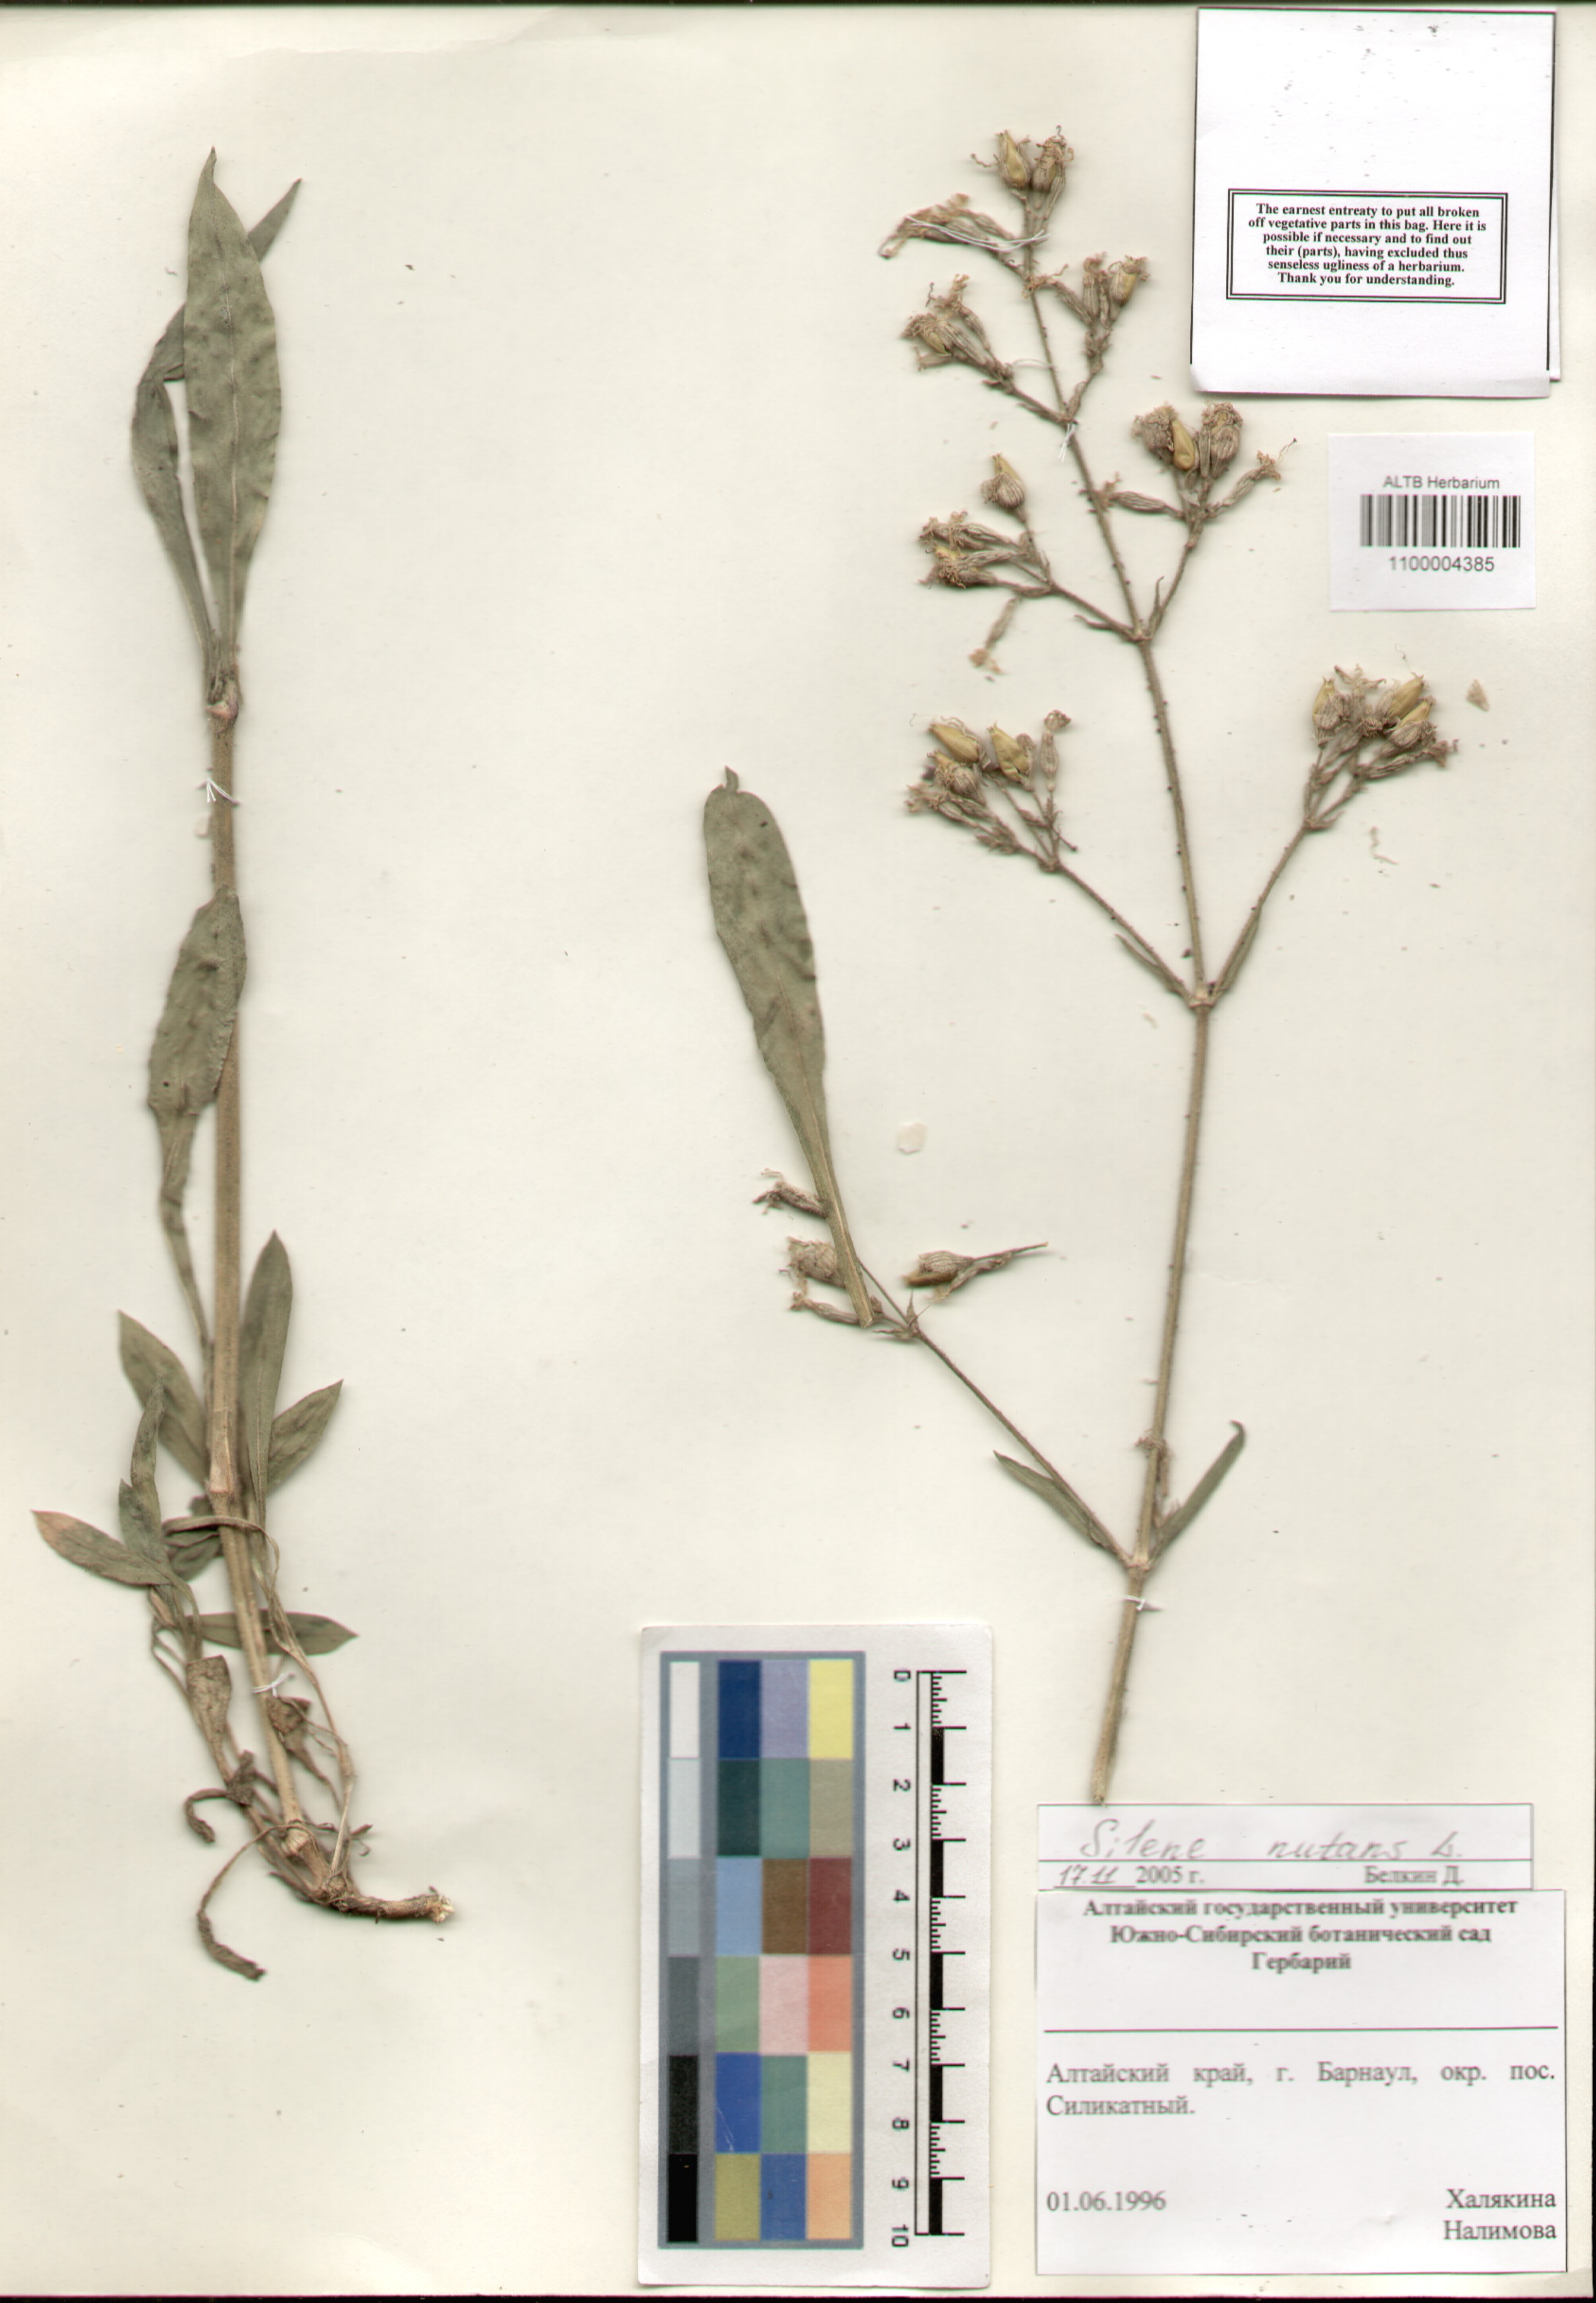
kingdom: Plantae
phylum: Tracheophyta
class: Magnoliopsida
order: Caryophyllales
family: Caryophyllaceae
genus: Silene
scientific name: Silene nutans
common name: Nottingham catchfly
